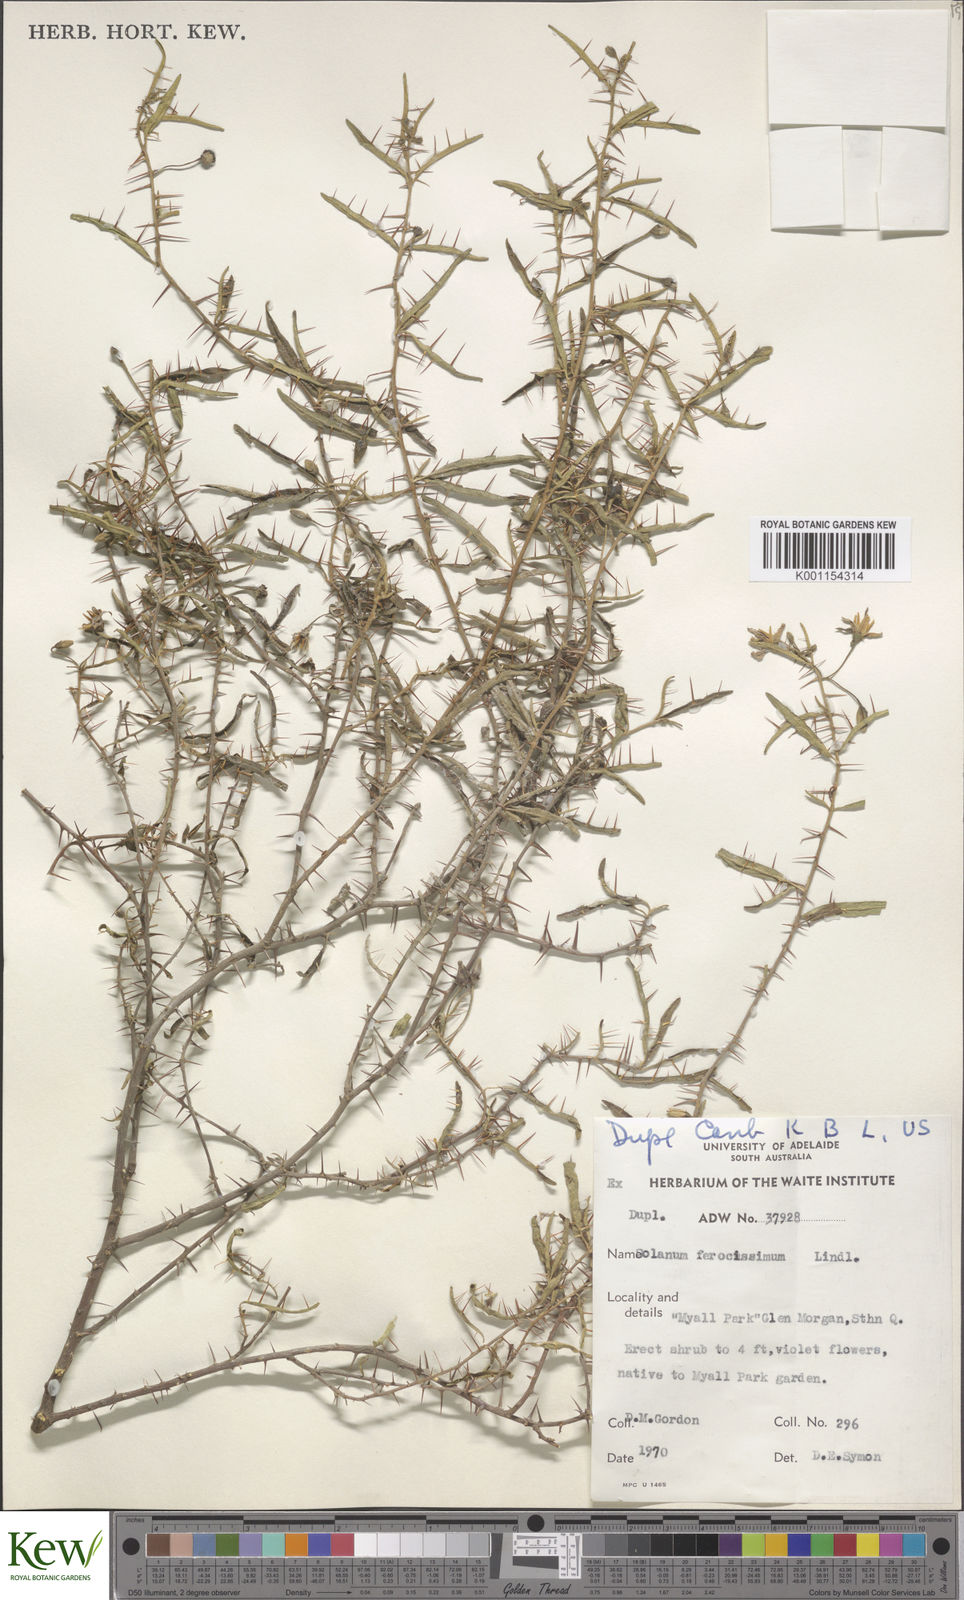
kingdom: Plantae
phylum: Tracheophyta
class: Magnoliopsida
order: Solanales
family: Solanaceae
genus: Solanum
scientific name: Solanum ferocissimum
